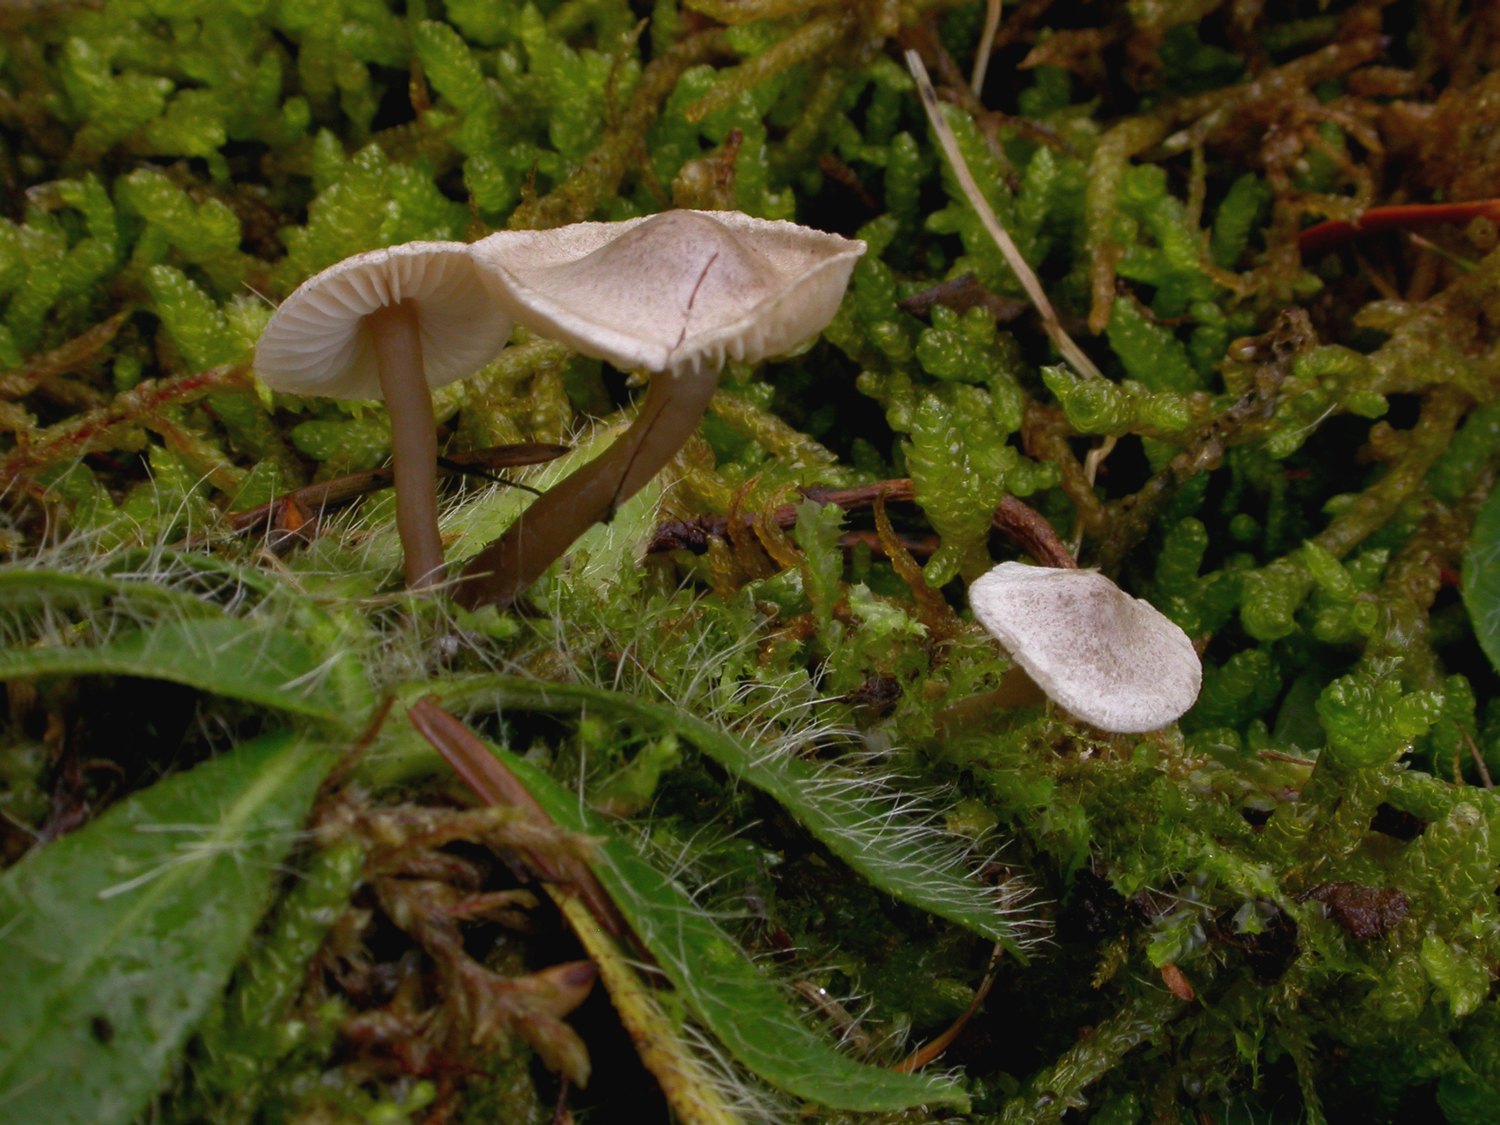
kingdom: Fungi
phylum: Basidiomycota
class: Agaricomycetes
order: Agaricales
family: Lyophyllaceae
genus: Lyophyllum
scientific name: Lyophyllum tomentellum
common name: finfiltet gråblad
